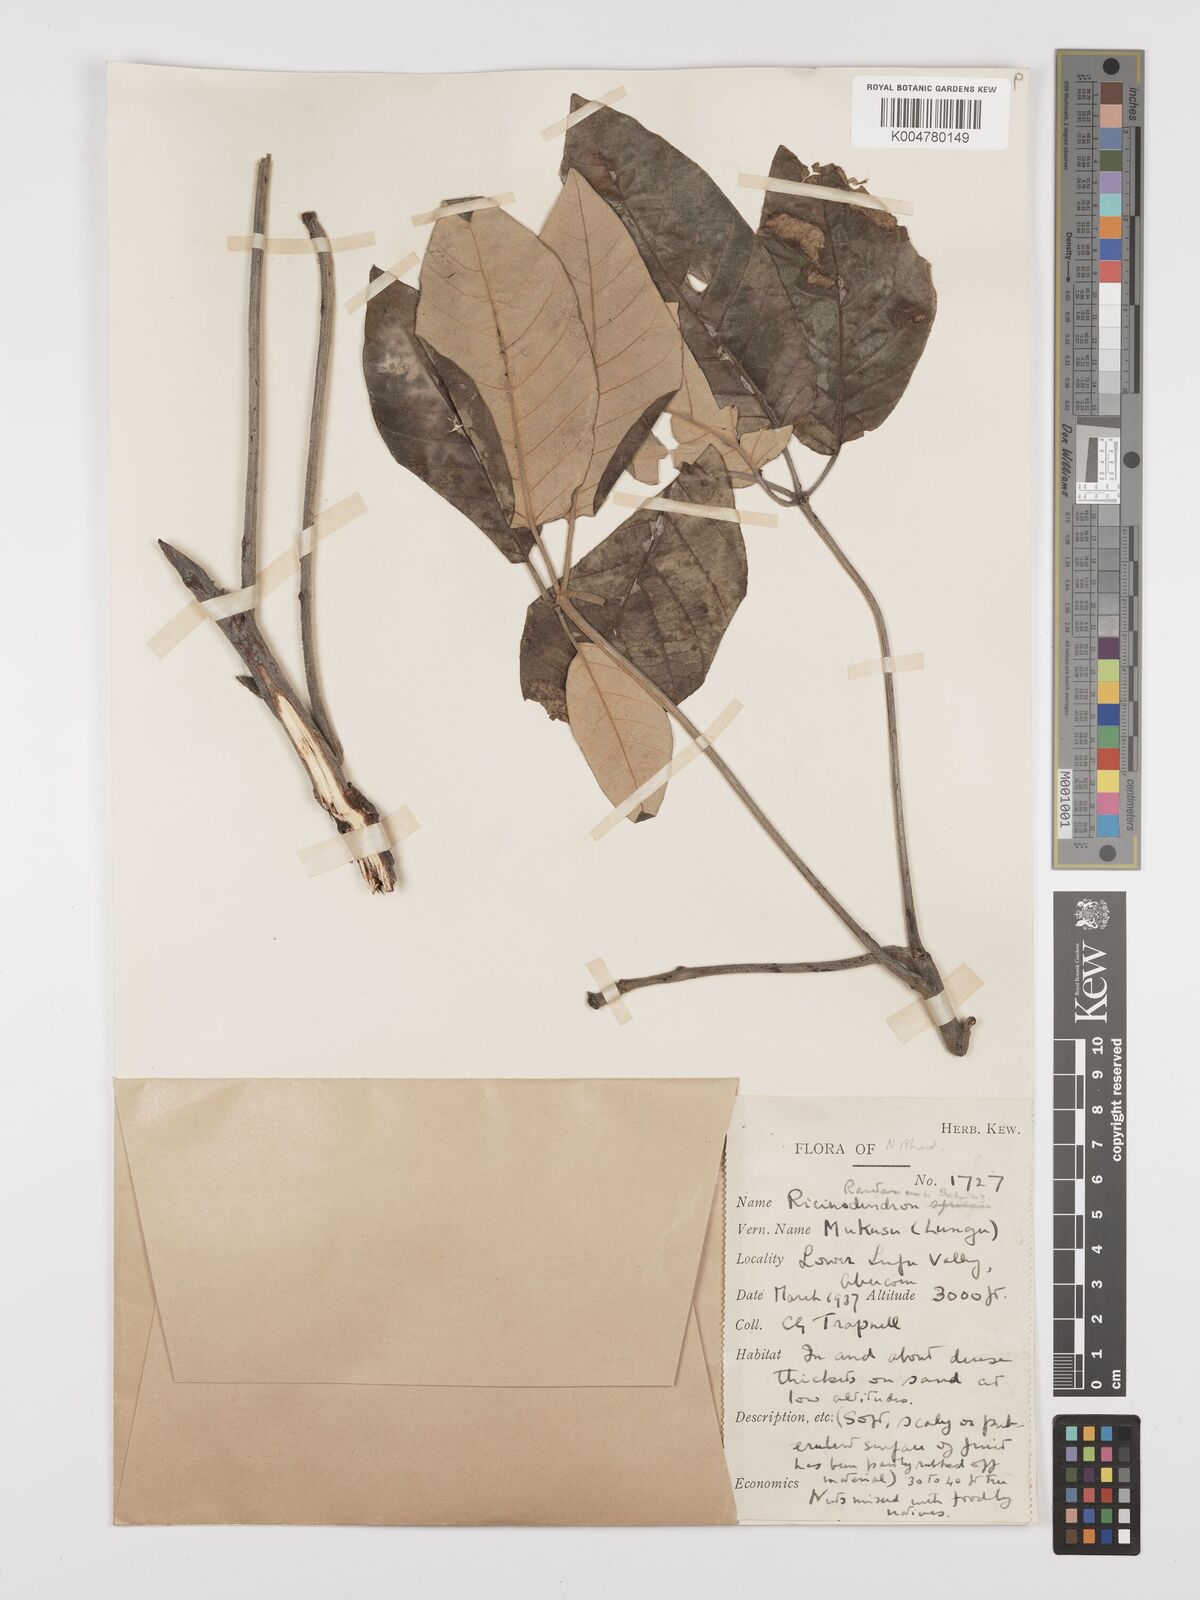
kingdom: Plantae
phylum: Tracheophyta
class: Magnoliopsida
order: Malpighiales
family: Euphorbiaceae
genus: Schinziophyton
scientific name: Schinziophyton rautanenii
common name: Manketti
